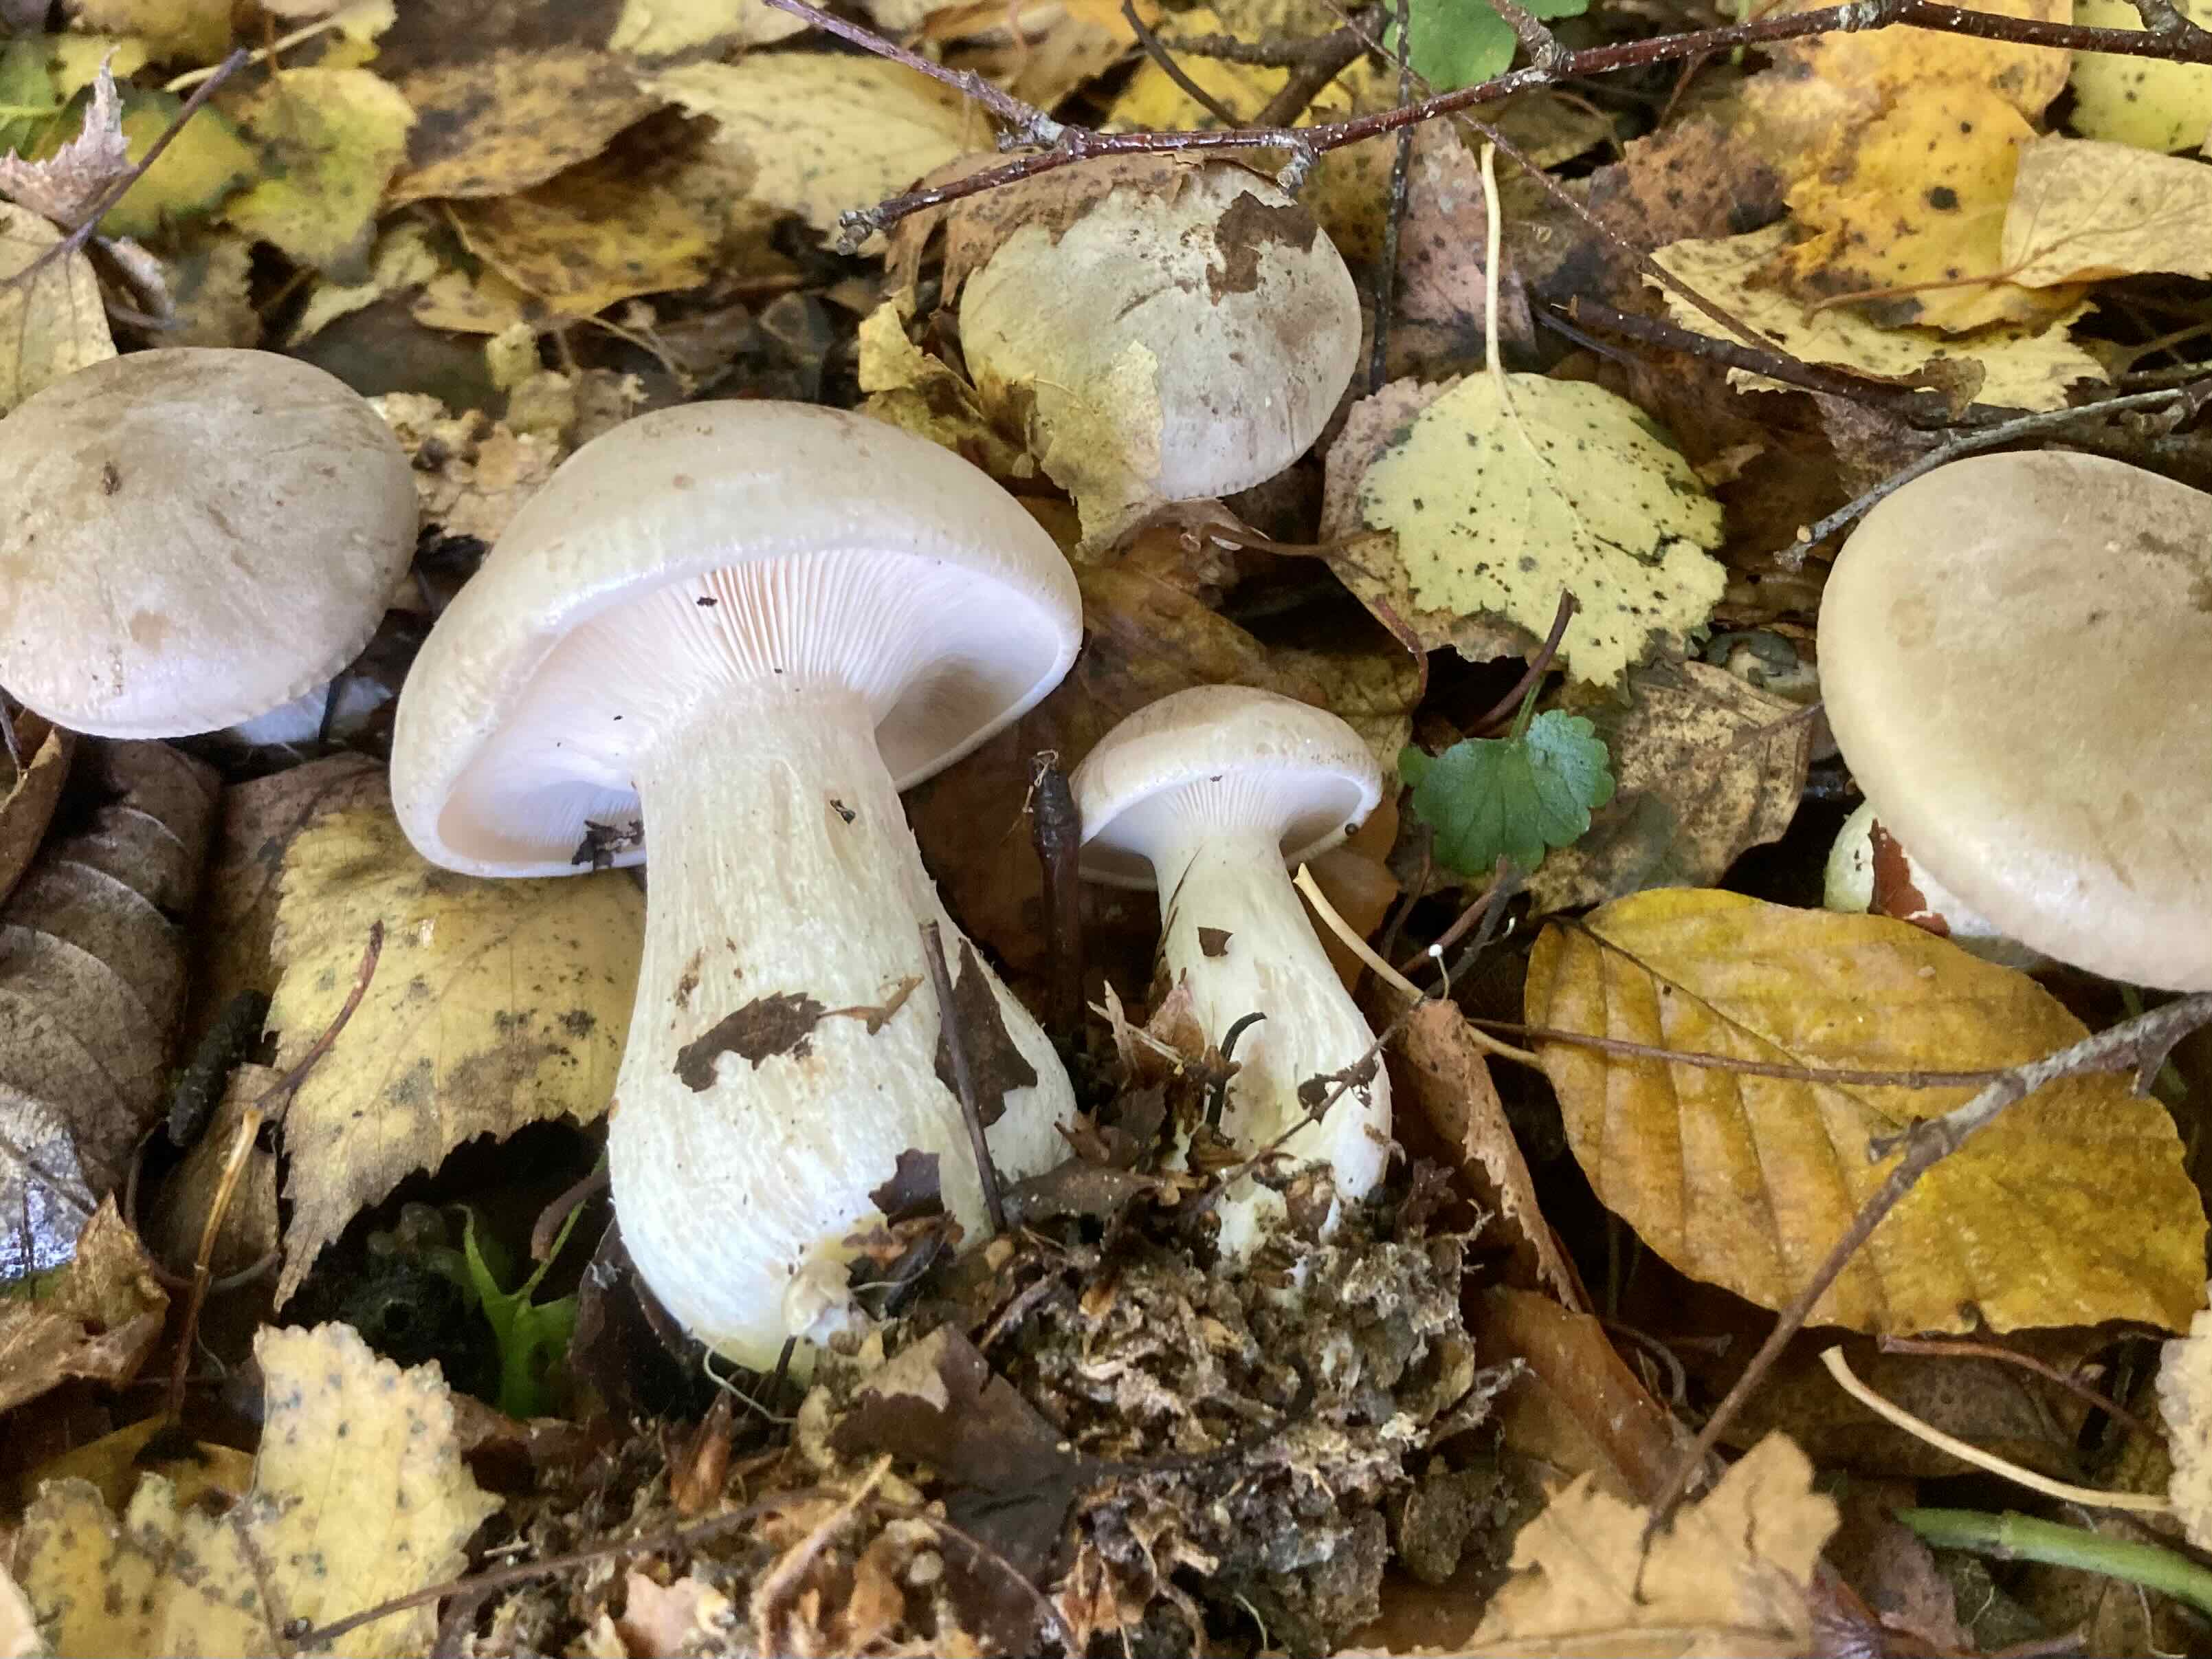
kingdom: Fungi
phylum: Basidiomycota
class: Agaricomycetes
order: Agaricales
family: Tricholomataceae
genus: Clitocybe
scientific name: Clitocybe nebularis
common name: tåge-tragthat
